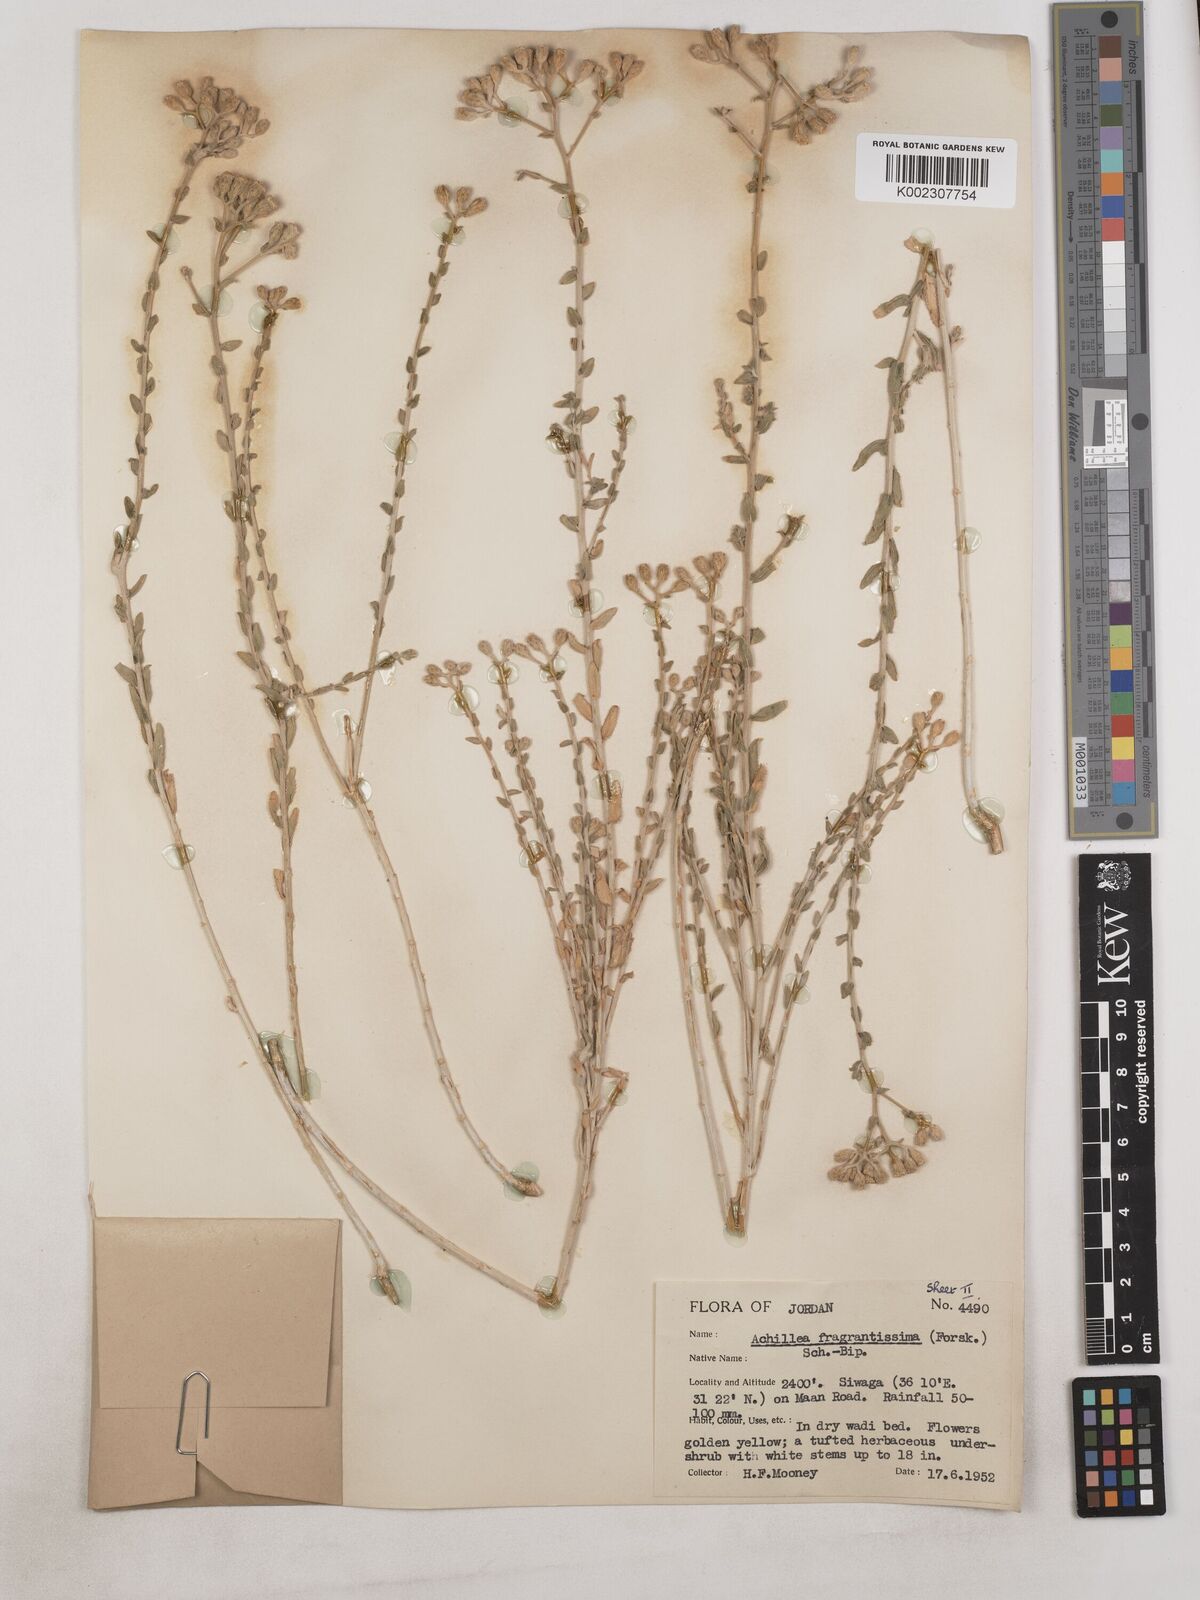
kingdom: Plantae
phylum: Tracheophyta
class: Magnoliopsida
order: Asterales
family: Asteraceae
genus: Achillea
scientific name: Achillea fragrantissima
